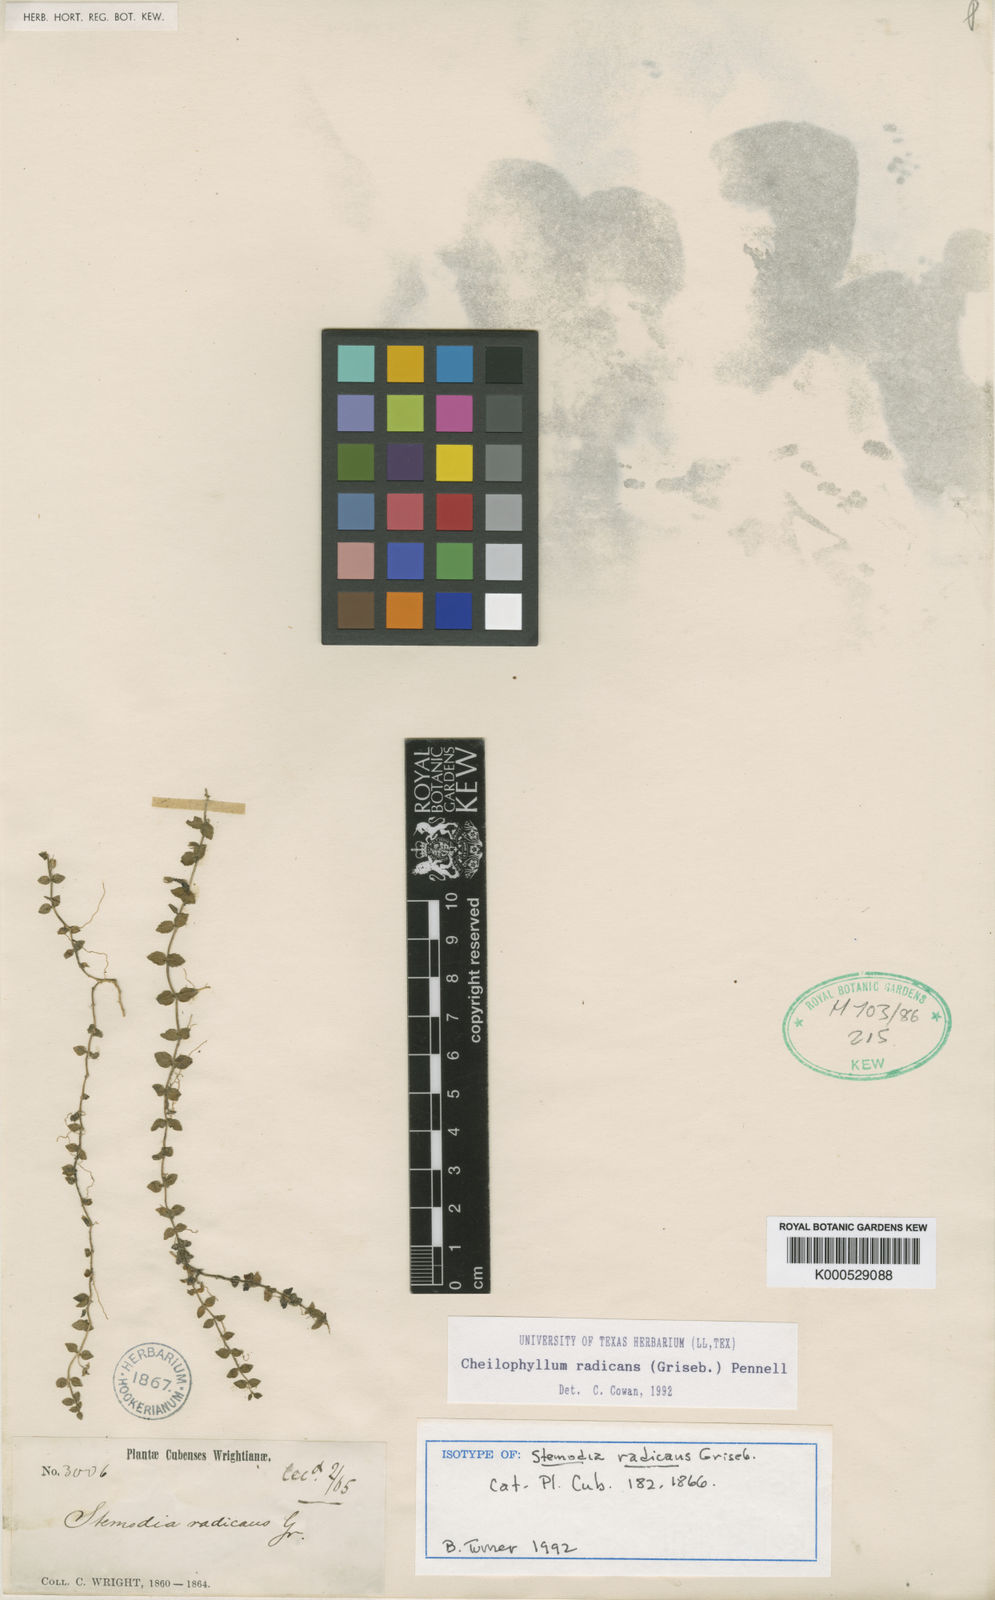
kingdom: Plantae
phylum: Tracheophyta
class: Magnoliopsida
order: Lamiales
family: Plantaginaceae
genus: Cheilophyllum
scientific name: Cheilophyllum radicans
